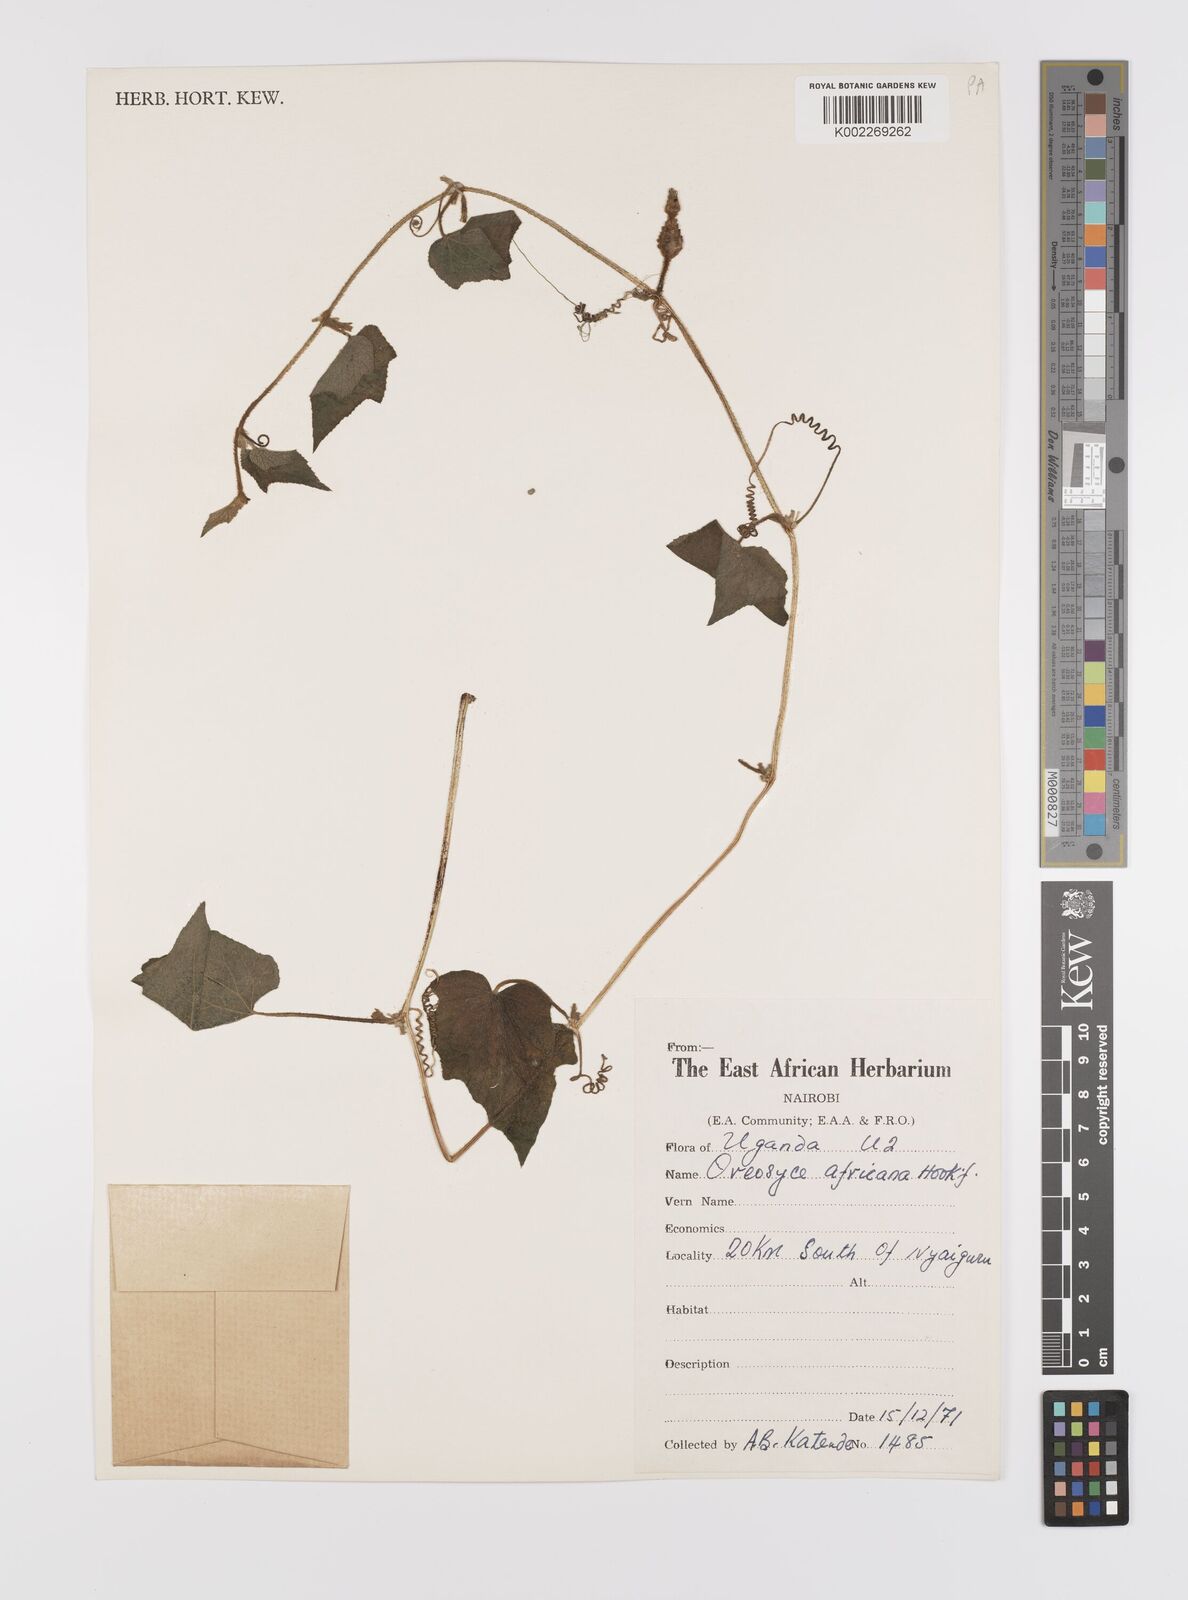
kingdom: Plantae
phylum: Tracheophyta
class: Magnoliopsida
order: Cucurbitales
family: Cucurbitaceae
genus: Cucumis
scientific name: Cucumis oreosyce
